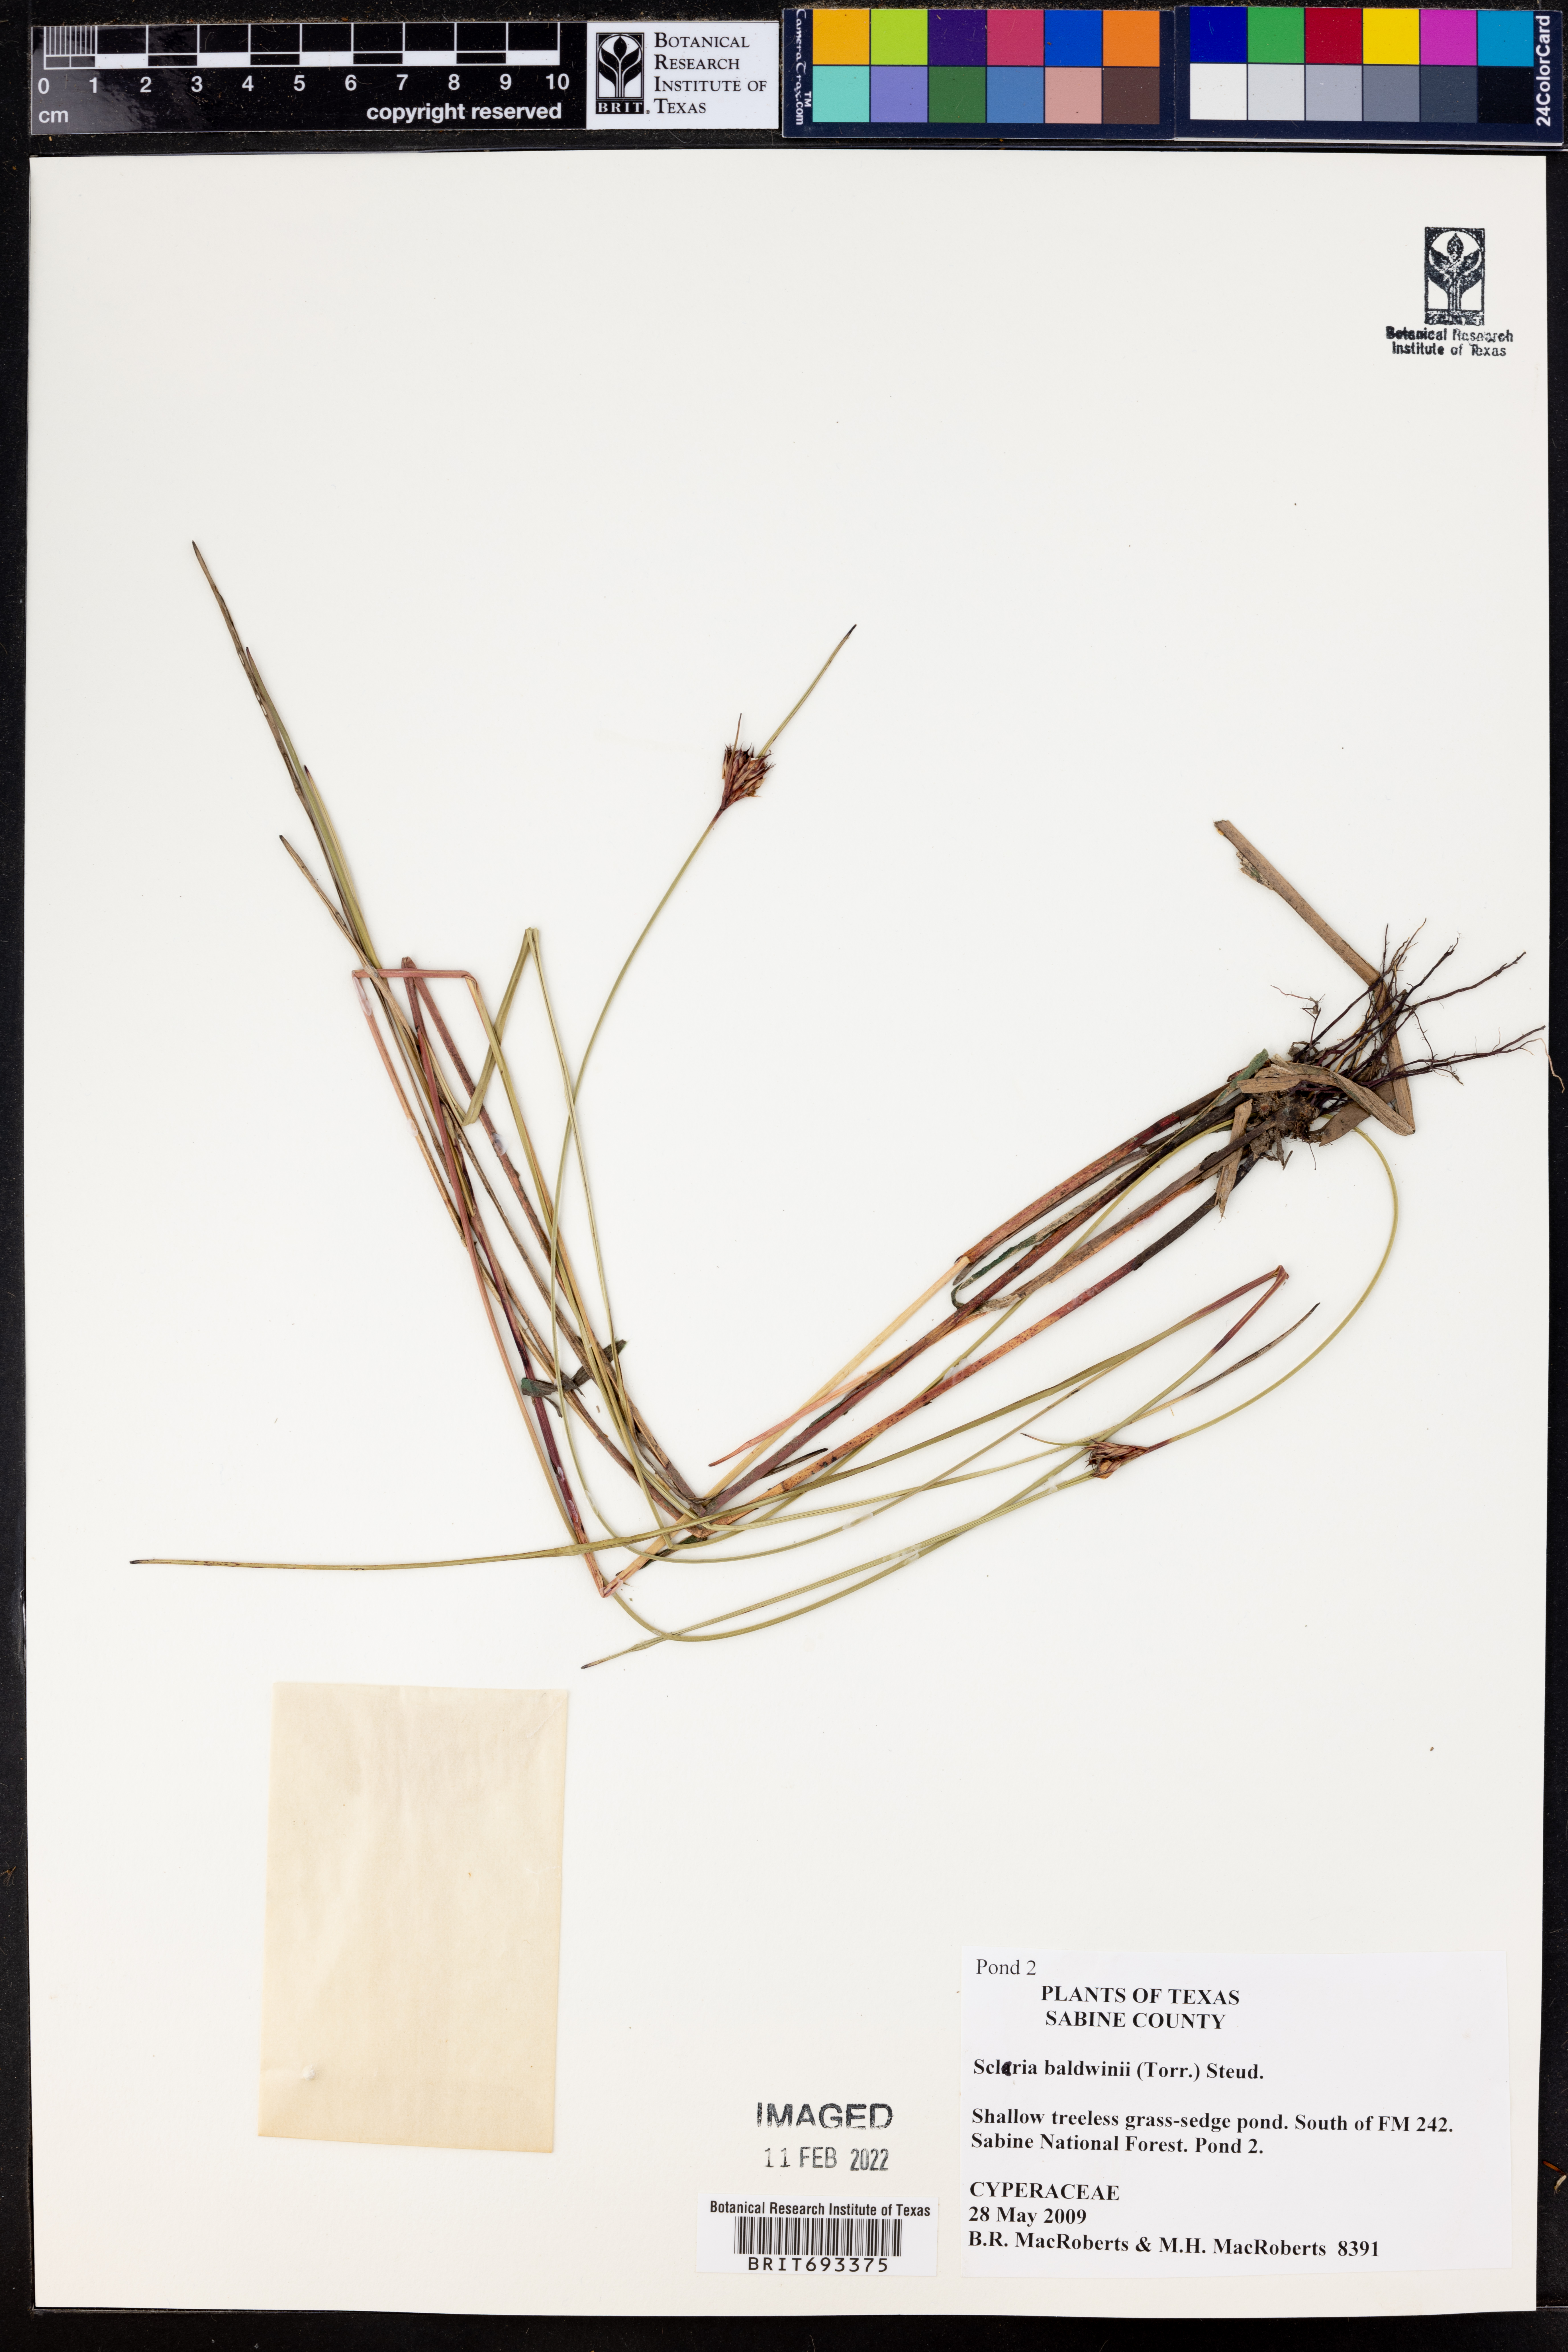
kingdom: Plantae
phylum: Tracheophyta
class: Liliopsida
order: Poales
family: Cyperaceae
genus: Scleria
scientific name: Scleria baldwinii
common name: Baldwin's nutrush
